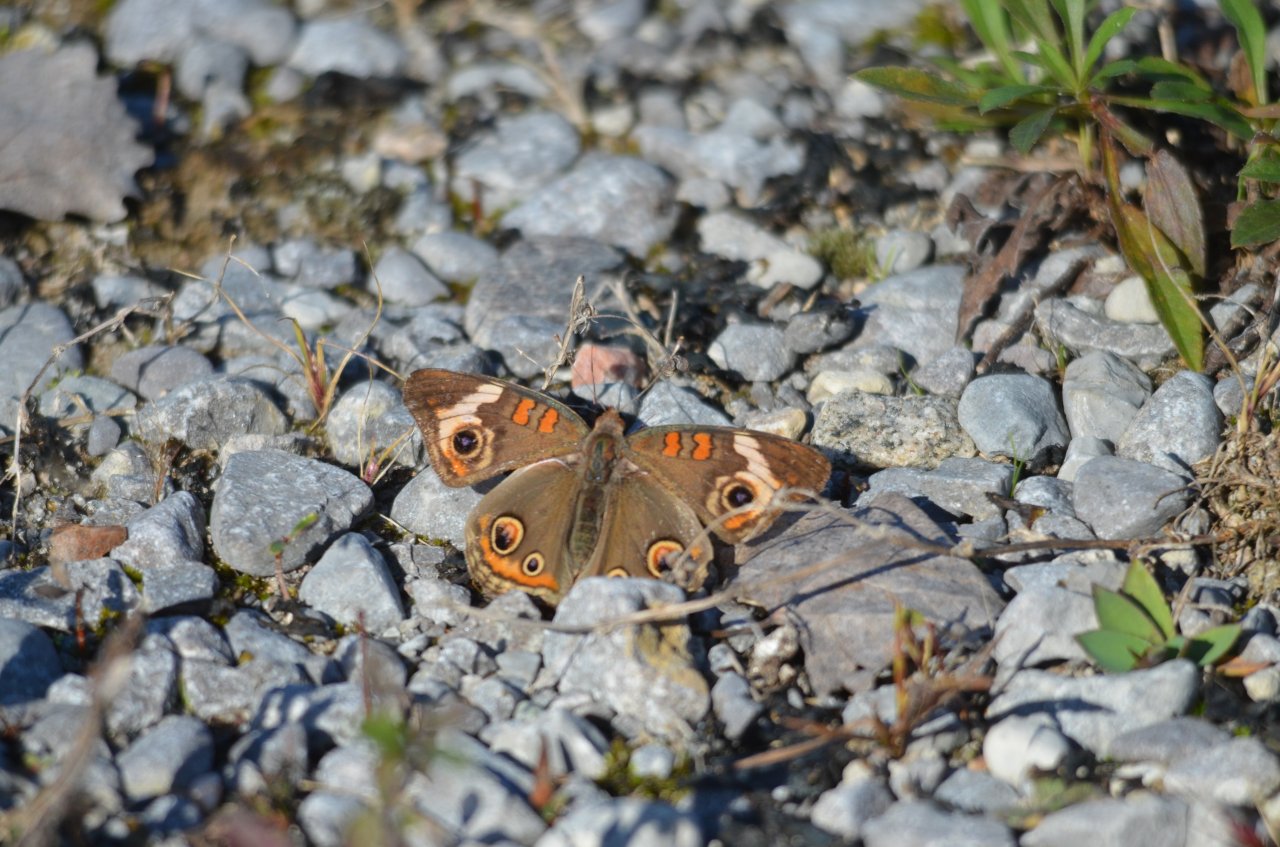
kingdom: Animalia
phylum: Arthropoda
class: Insecta
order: Lepidoptera
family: Nymphalidae
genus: Junonia
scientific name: Junonia coenia
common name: Common Buckeye
